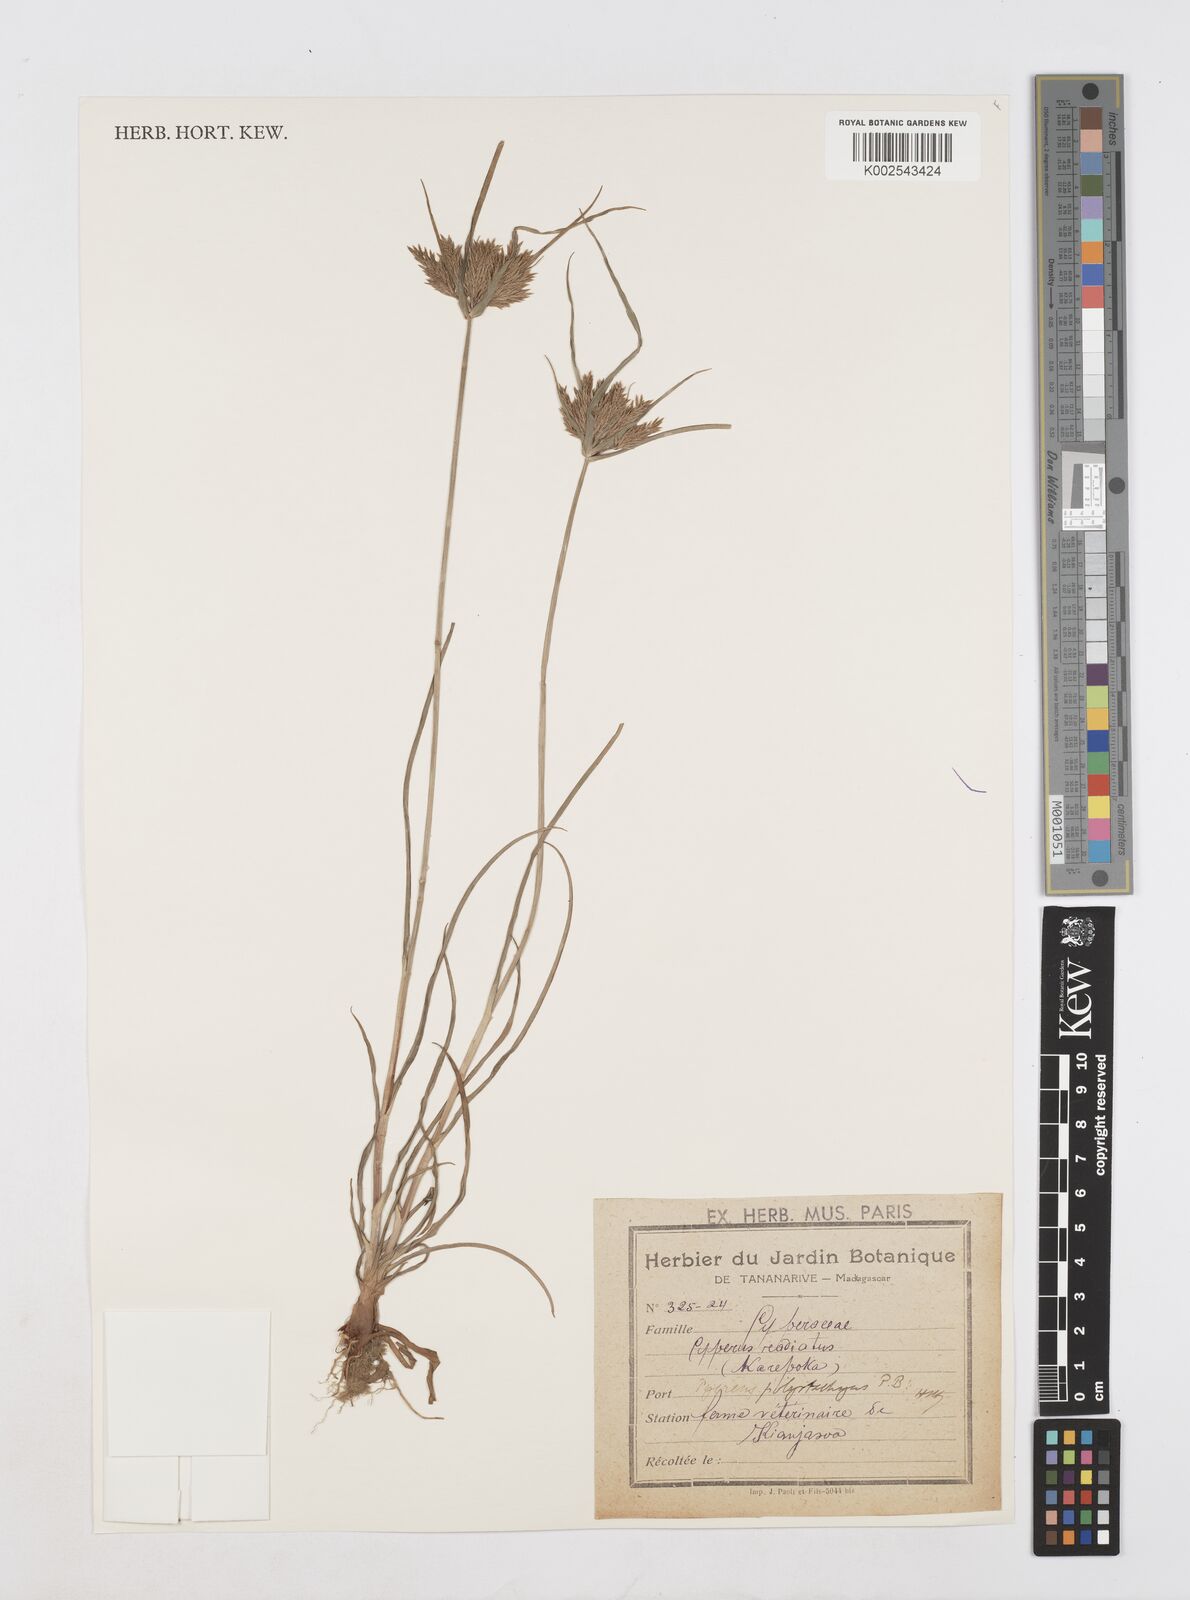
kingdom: Plantae
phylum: Tracheophyta
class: Liliopsida
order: Poales
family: Cyperaceae
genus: Cyperus
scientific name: Cyperus polystachyos
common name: Bunchy flat sedge
